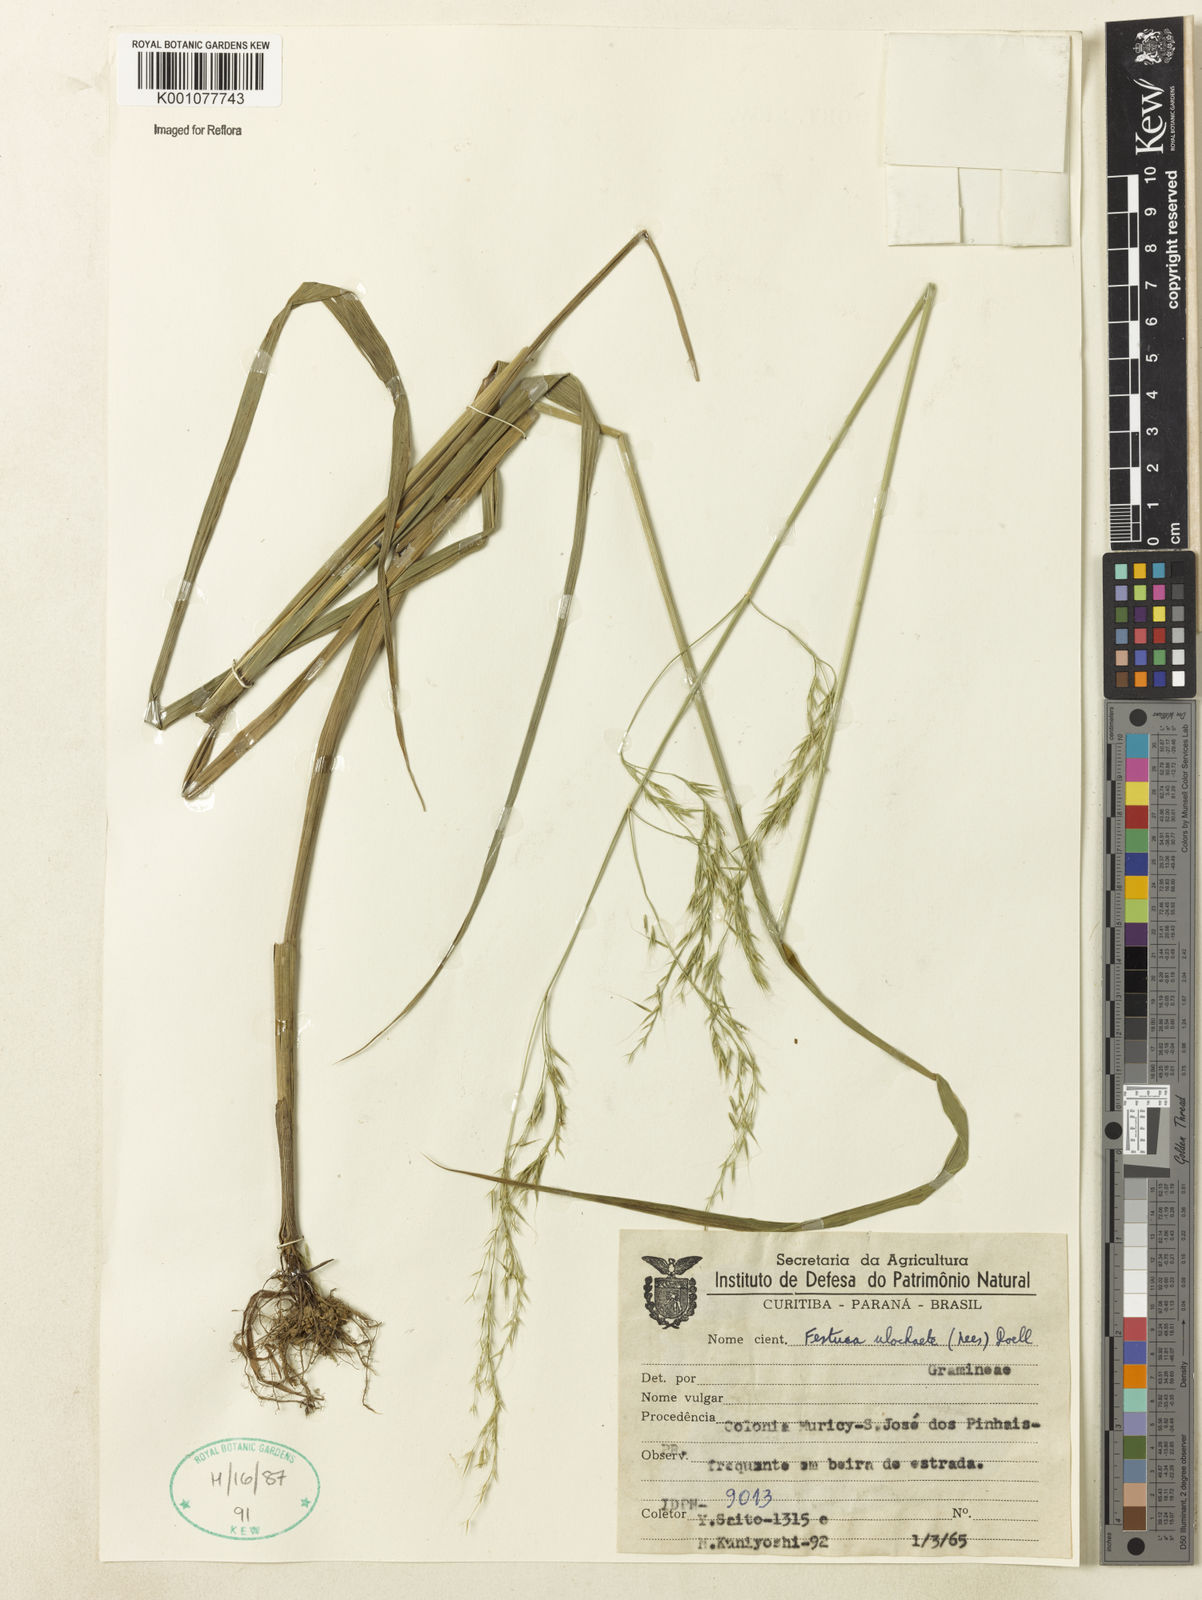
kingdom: Plantae
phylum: Tracheophyta
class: Liliopsida
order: Poales
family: Poaceae
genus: Festuca
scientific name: Festuca ulochaeta
